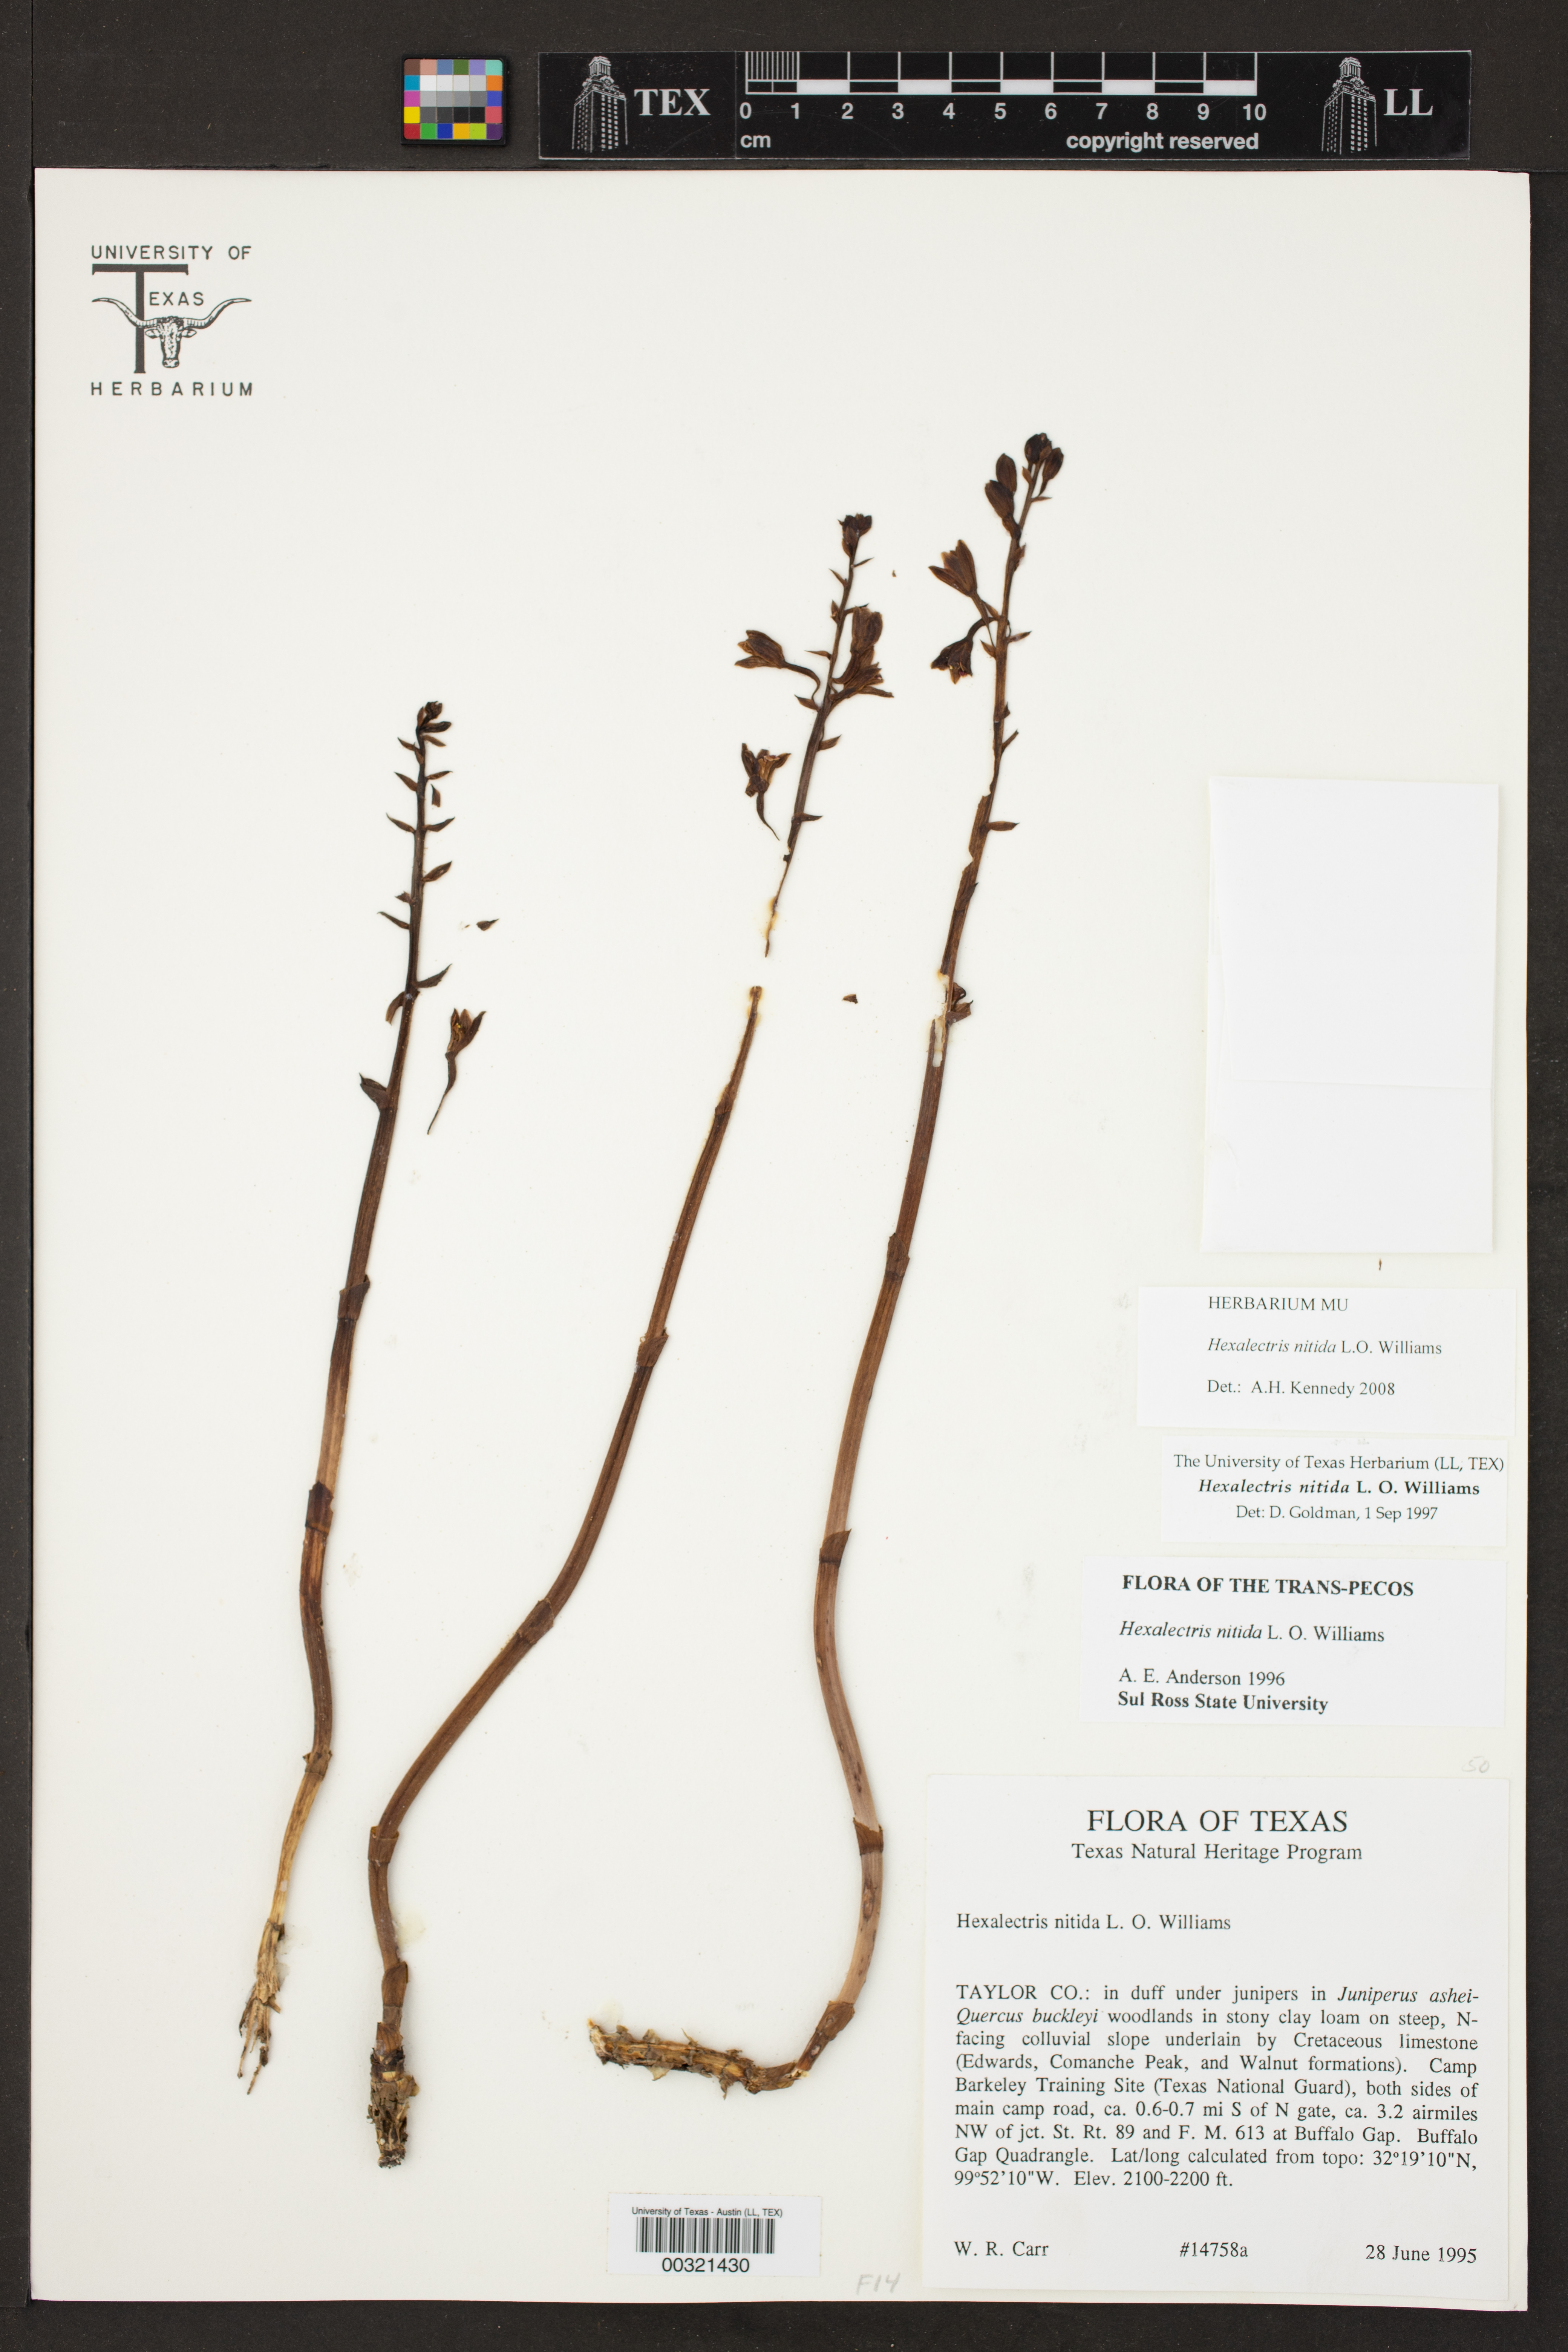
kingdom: Plantae
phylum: Tracheophyta
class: Liliopsida
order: Asparagales
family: Orchidaceae
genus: Bletia
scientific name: Bletia nitida
